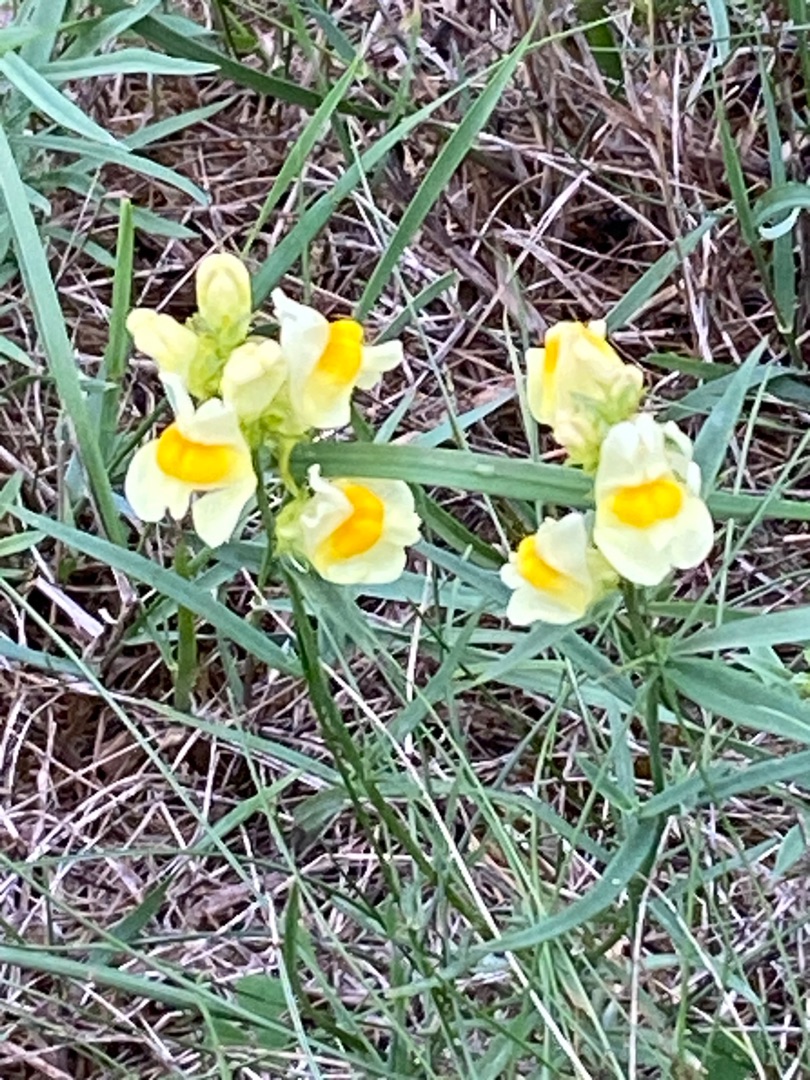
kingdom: Plantae
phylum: Tracheophyta
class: Magnoliopsida
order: Lamiales
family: Plantaginaceae
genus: Linaria
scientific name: Linaria vulgaris
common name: Almindelig torskemund
